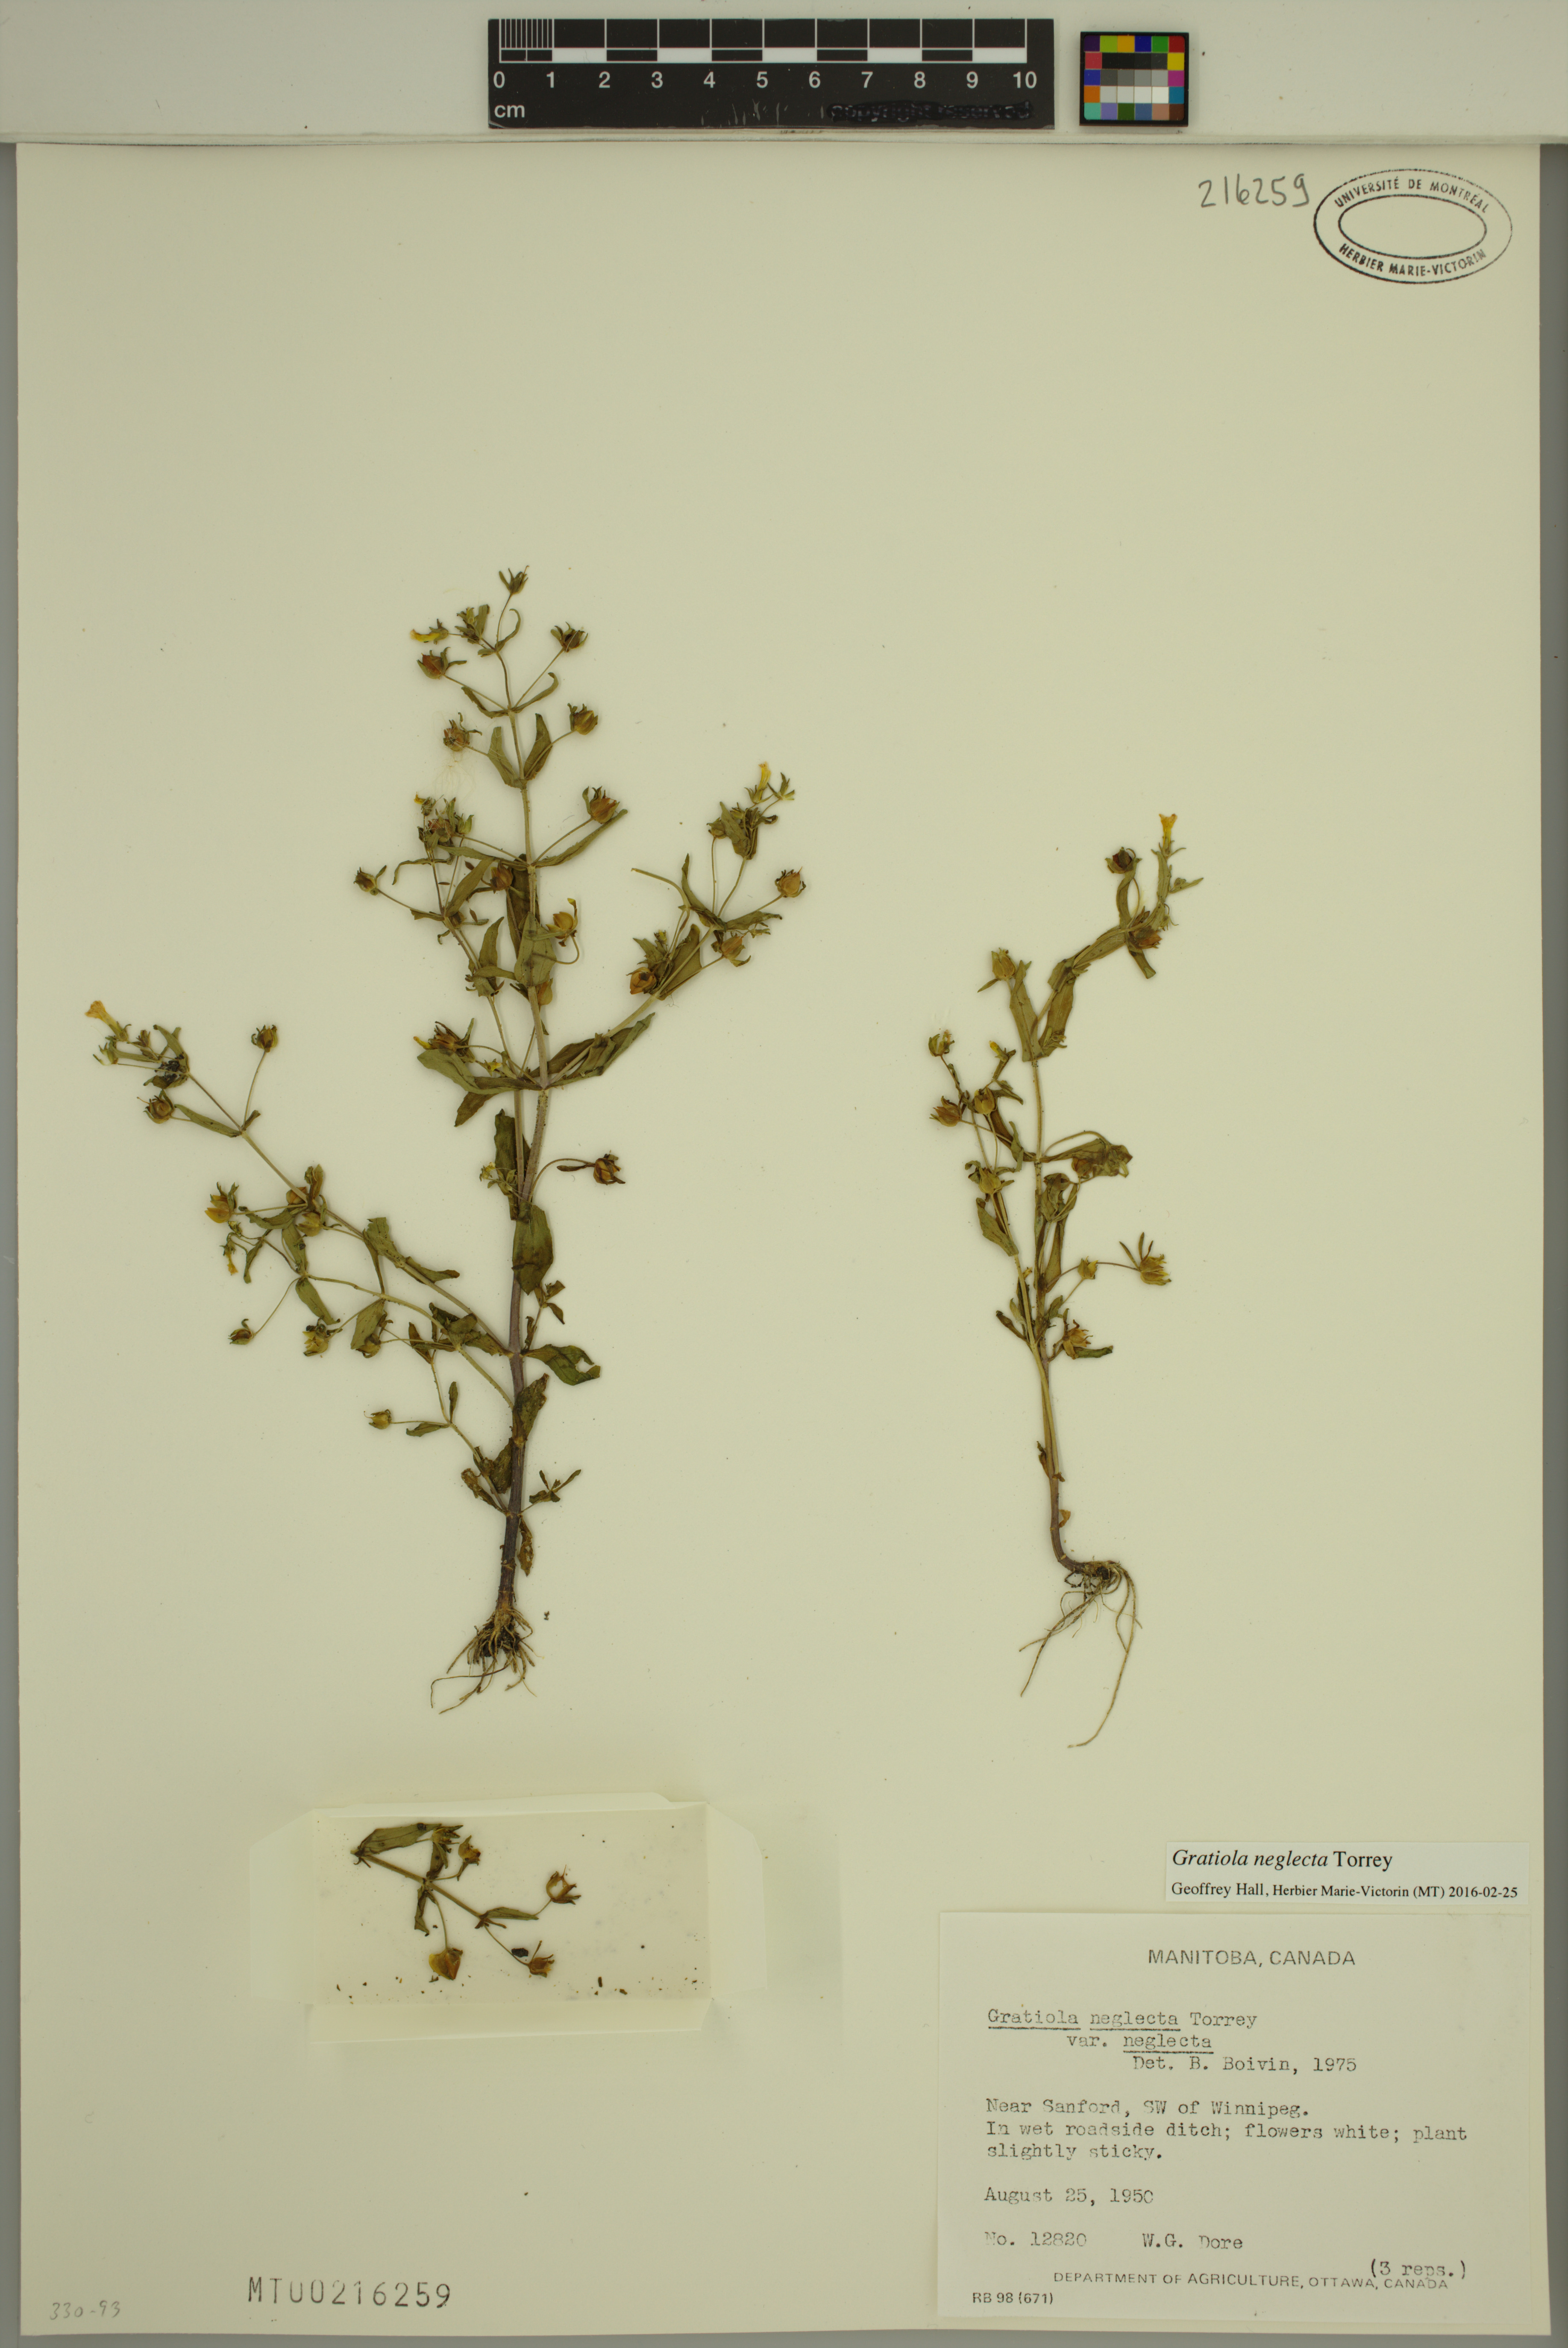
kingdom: Plantae
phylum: Tracheophyta
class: Magnoliopsida
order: Lamiales
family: Plantaginaceae
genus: Gratiola
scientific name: Gratiola neglecta
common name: American hedge-hyssop
